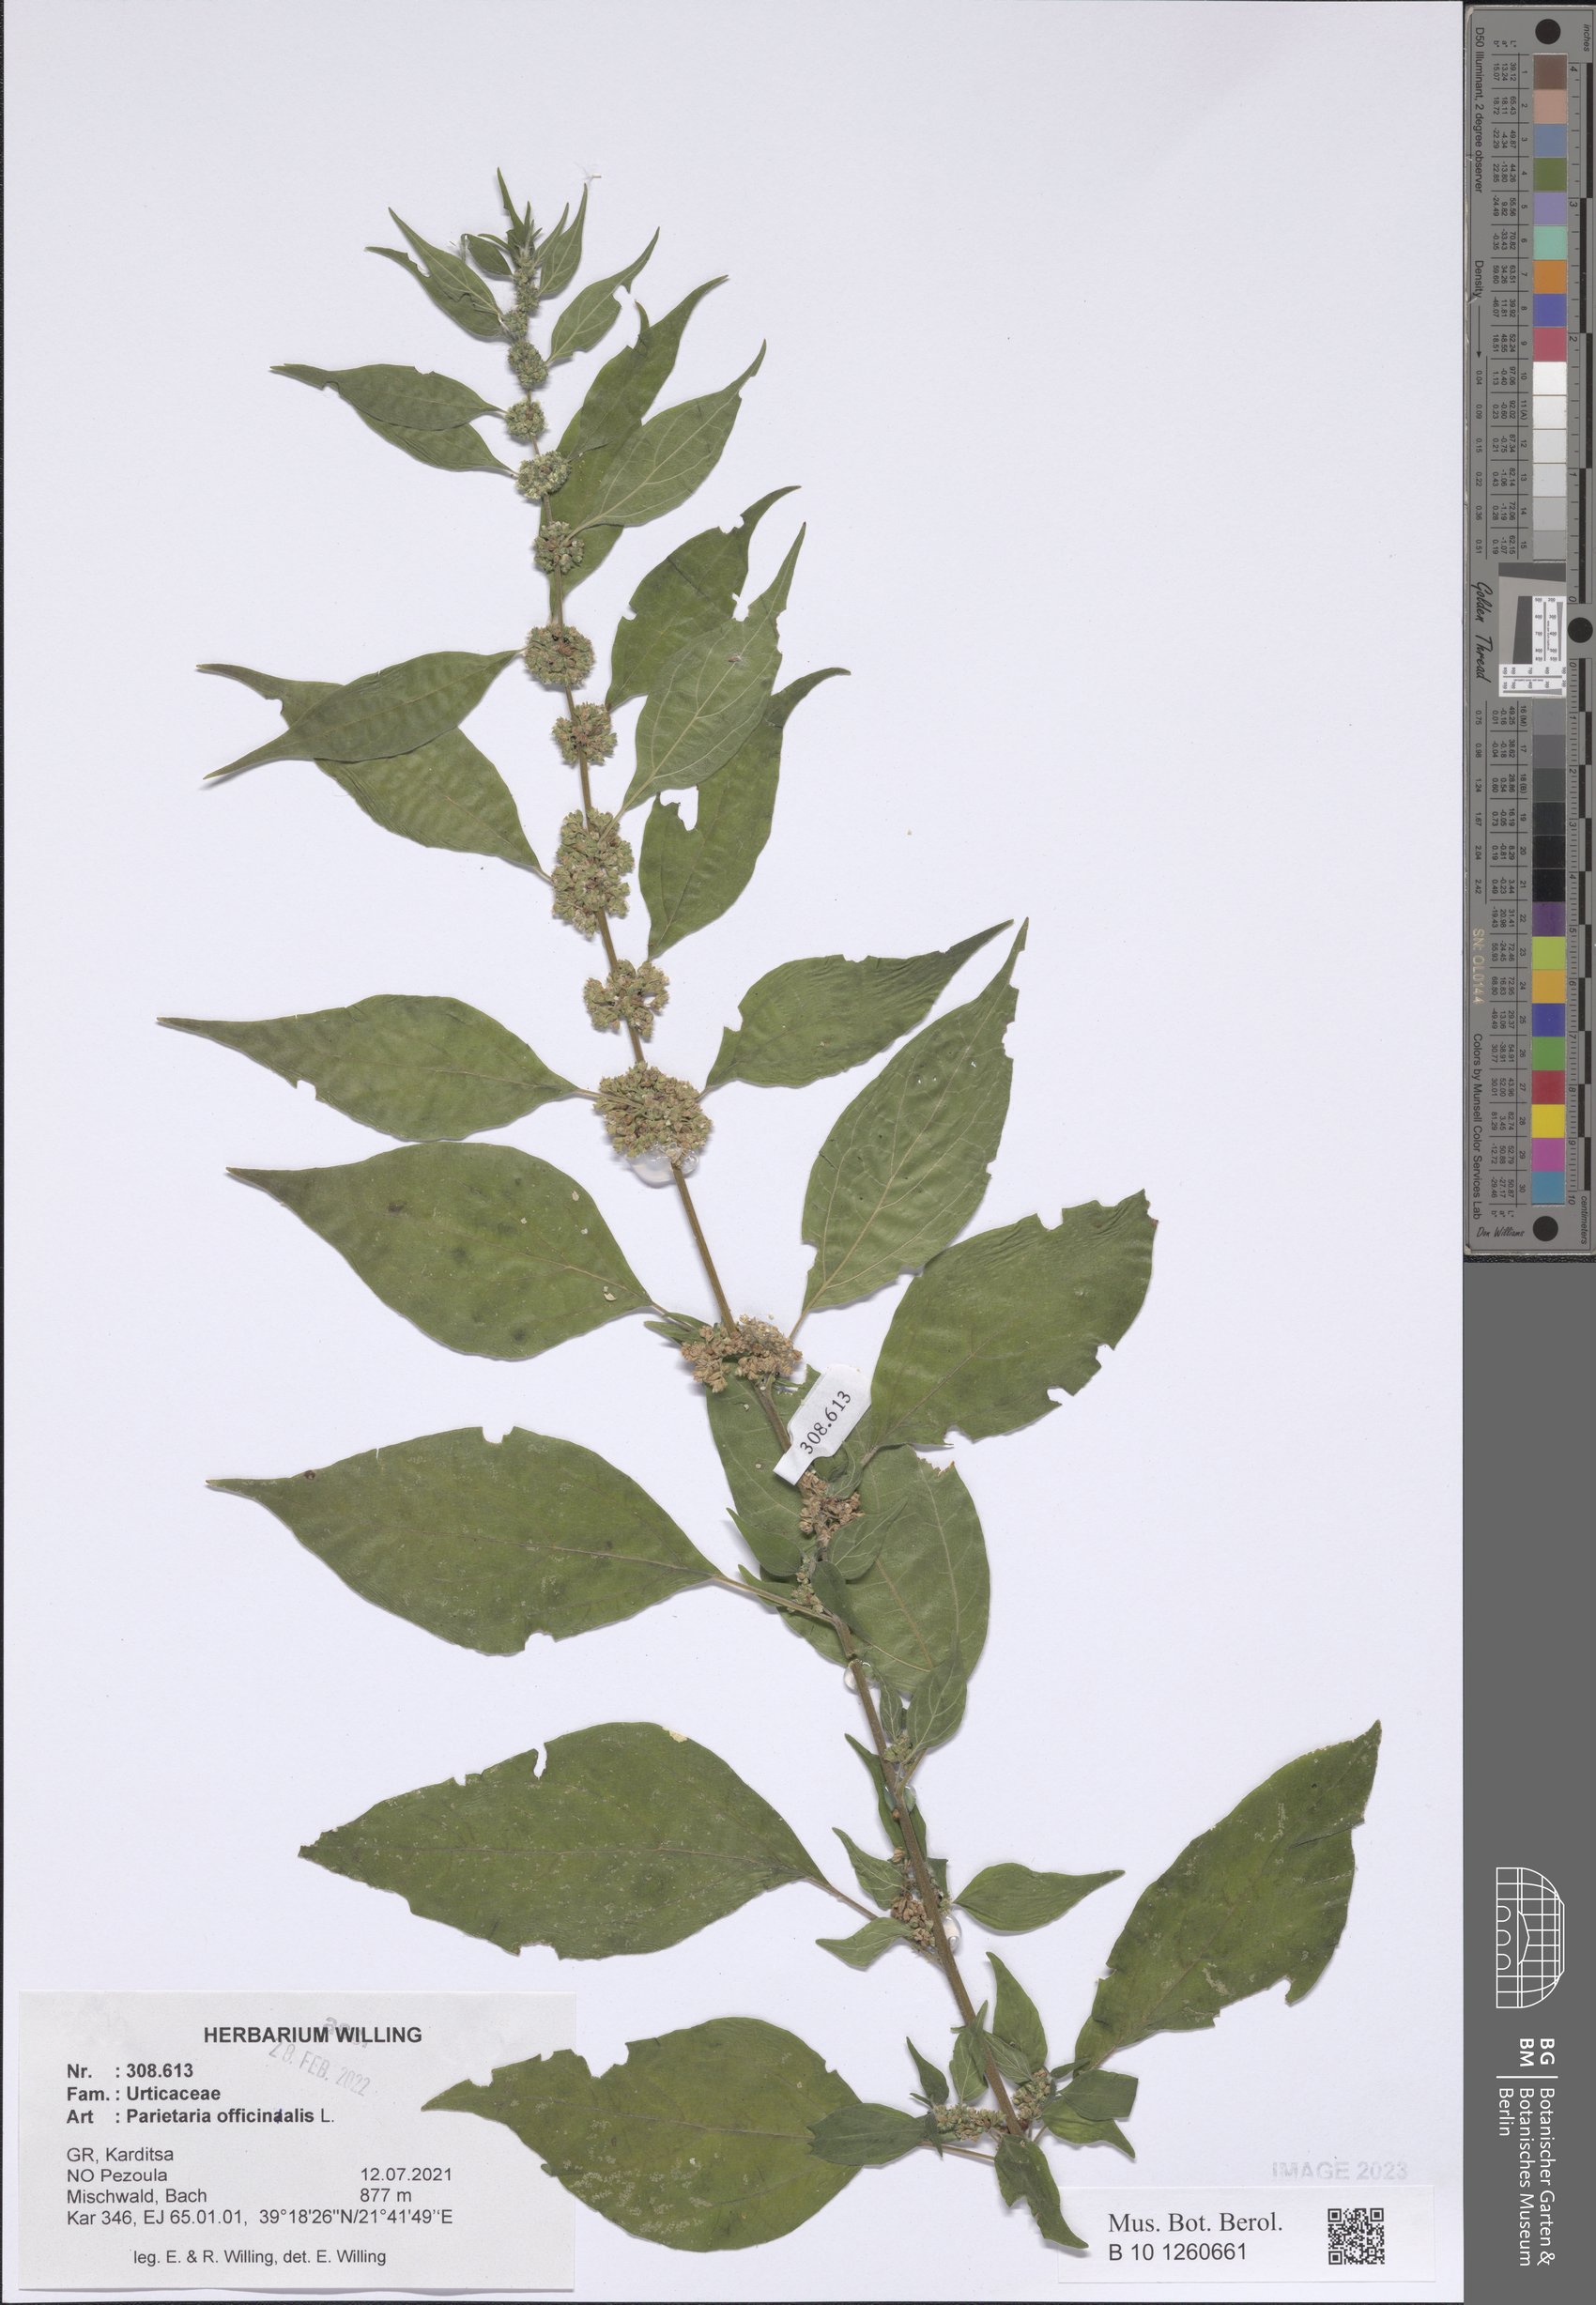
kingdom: Plantae
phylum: Tracheophyta
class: Magnoliopsida
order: Rosales
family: Urticaceae
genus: Parietaria
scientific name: Parietaria officinalis
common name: Eastern pellitory-of-the-wall
